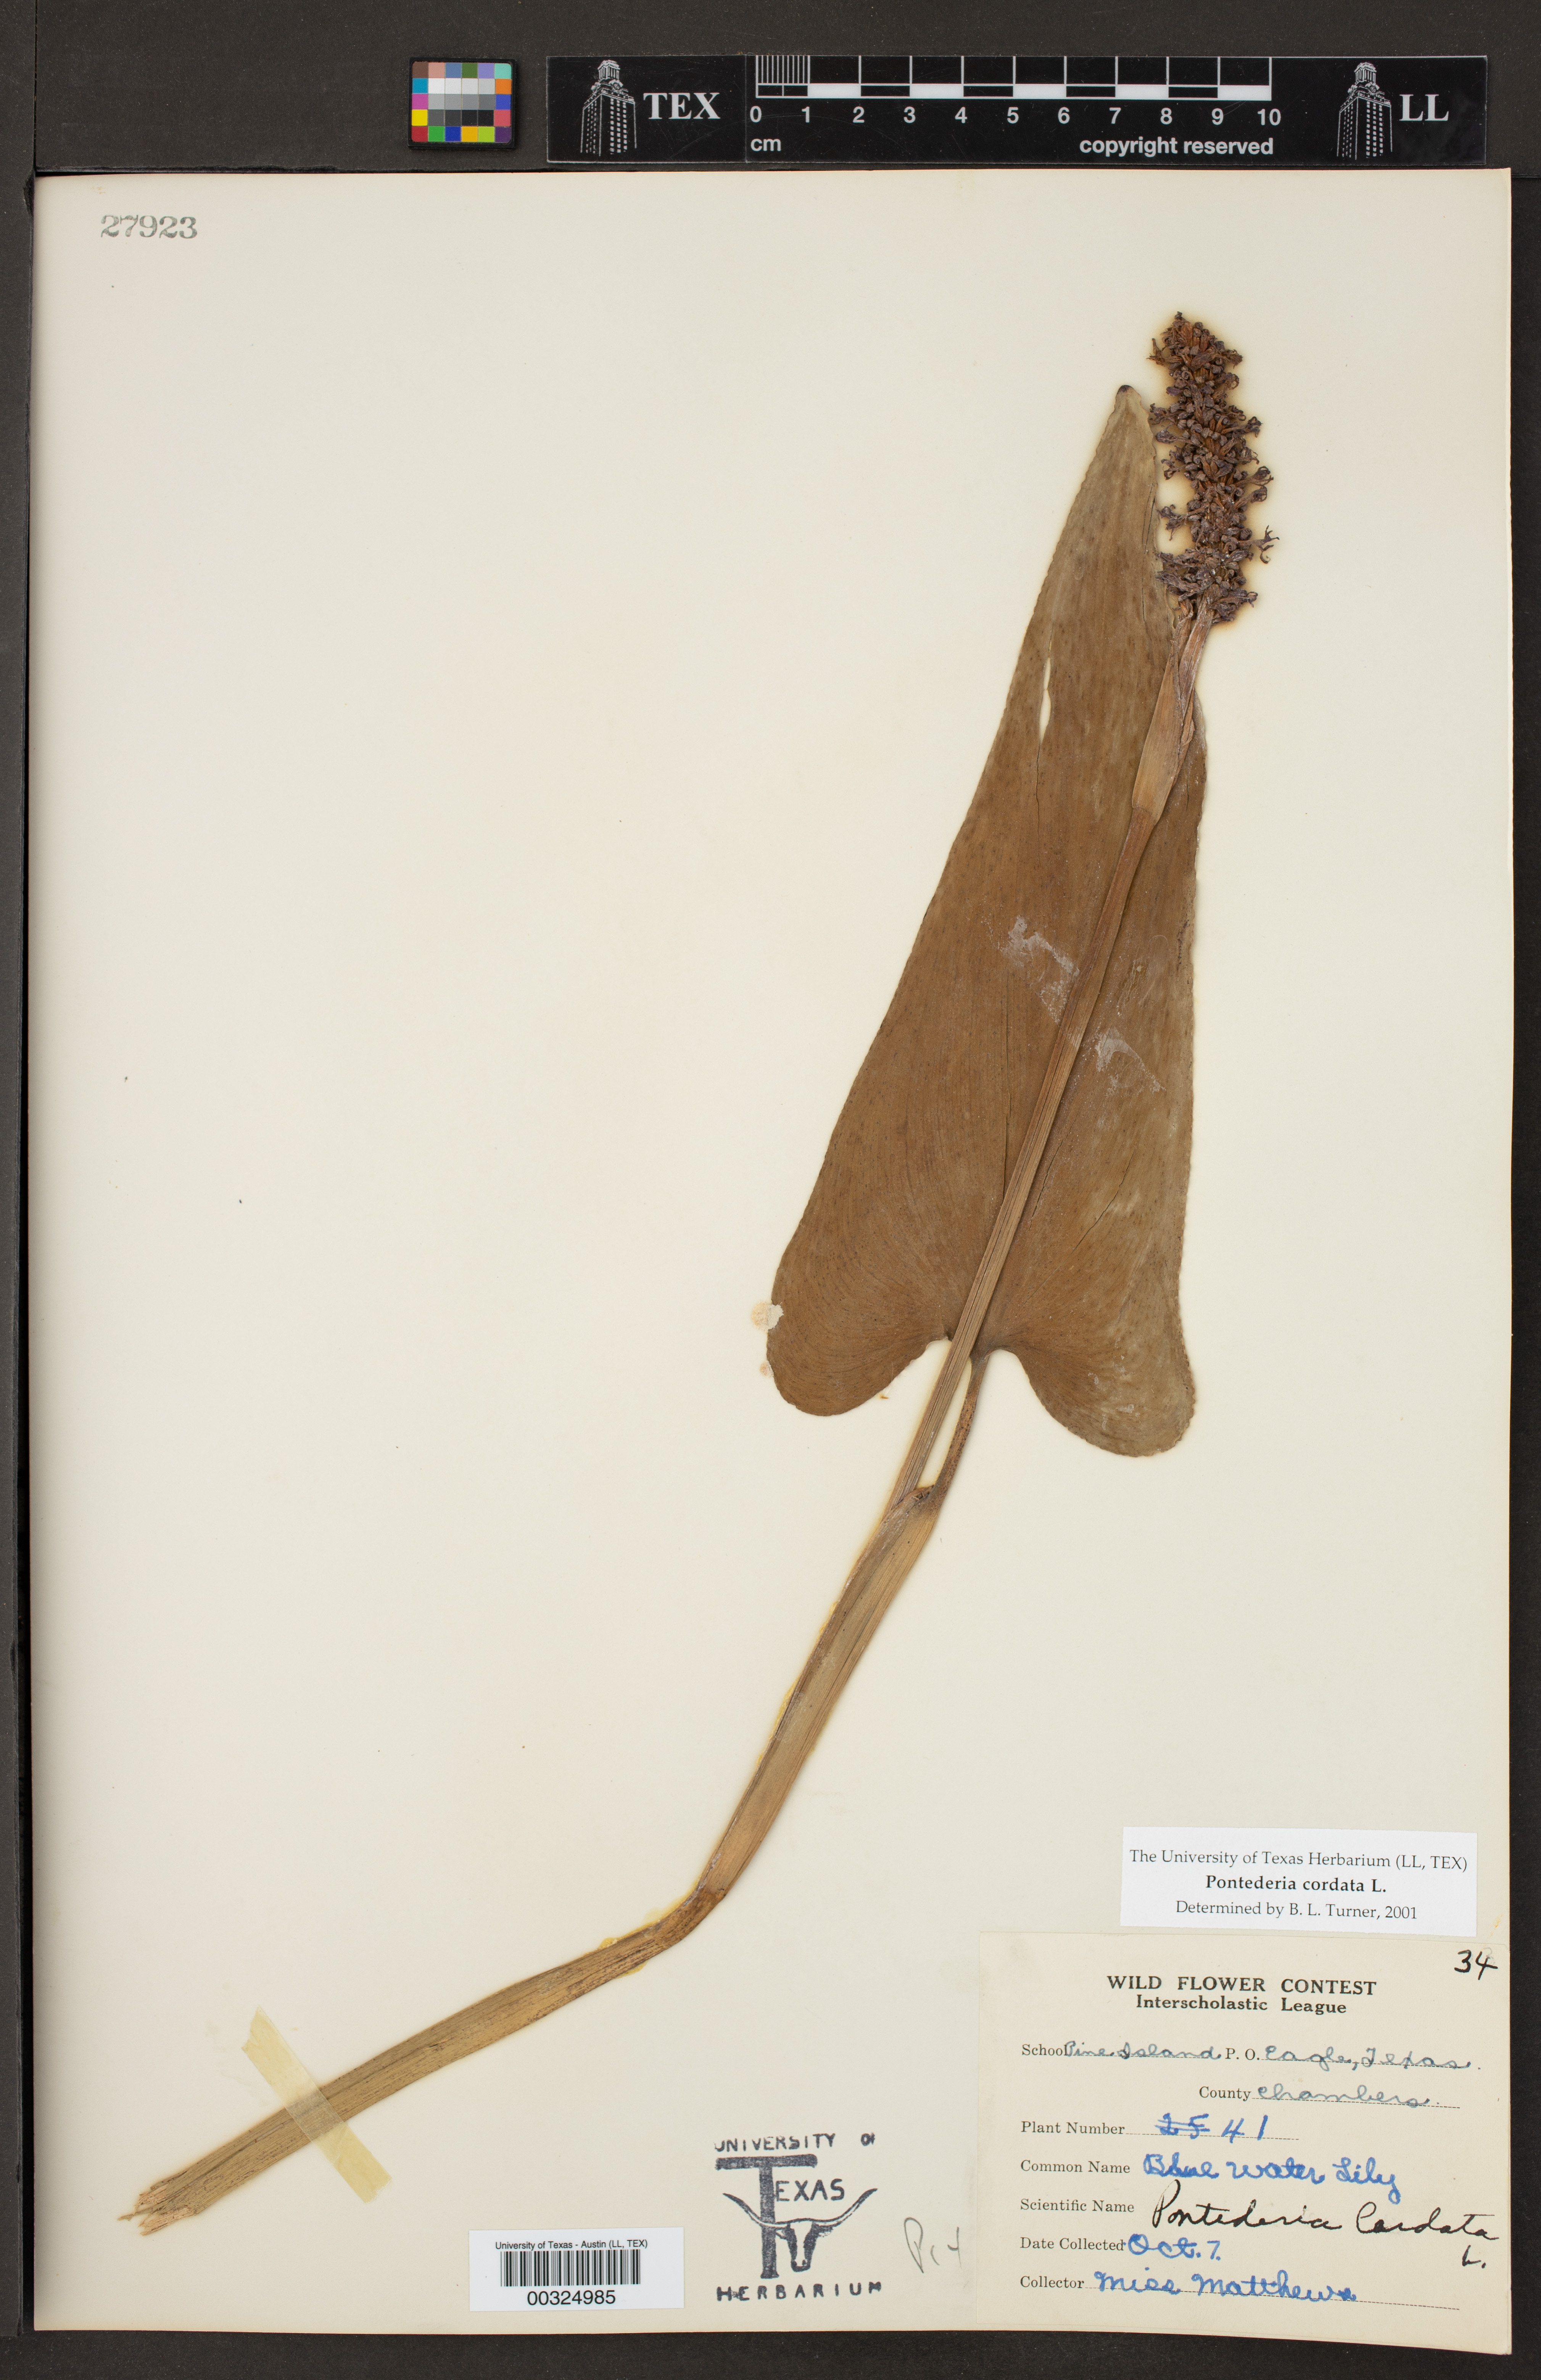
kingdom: Plantae
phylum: Tracheophyta
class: Liliopsida
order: Commelinales
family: Pontederiaceae
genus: Pontederia
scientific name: Pontederia cordata
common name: Pickerelweed
